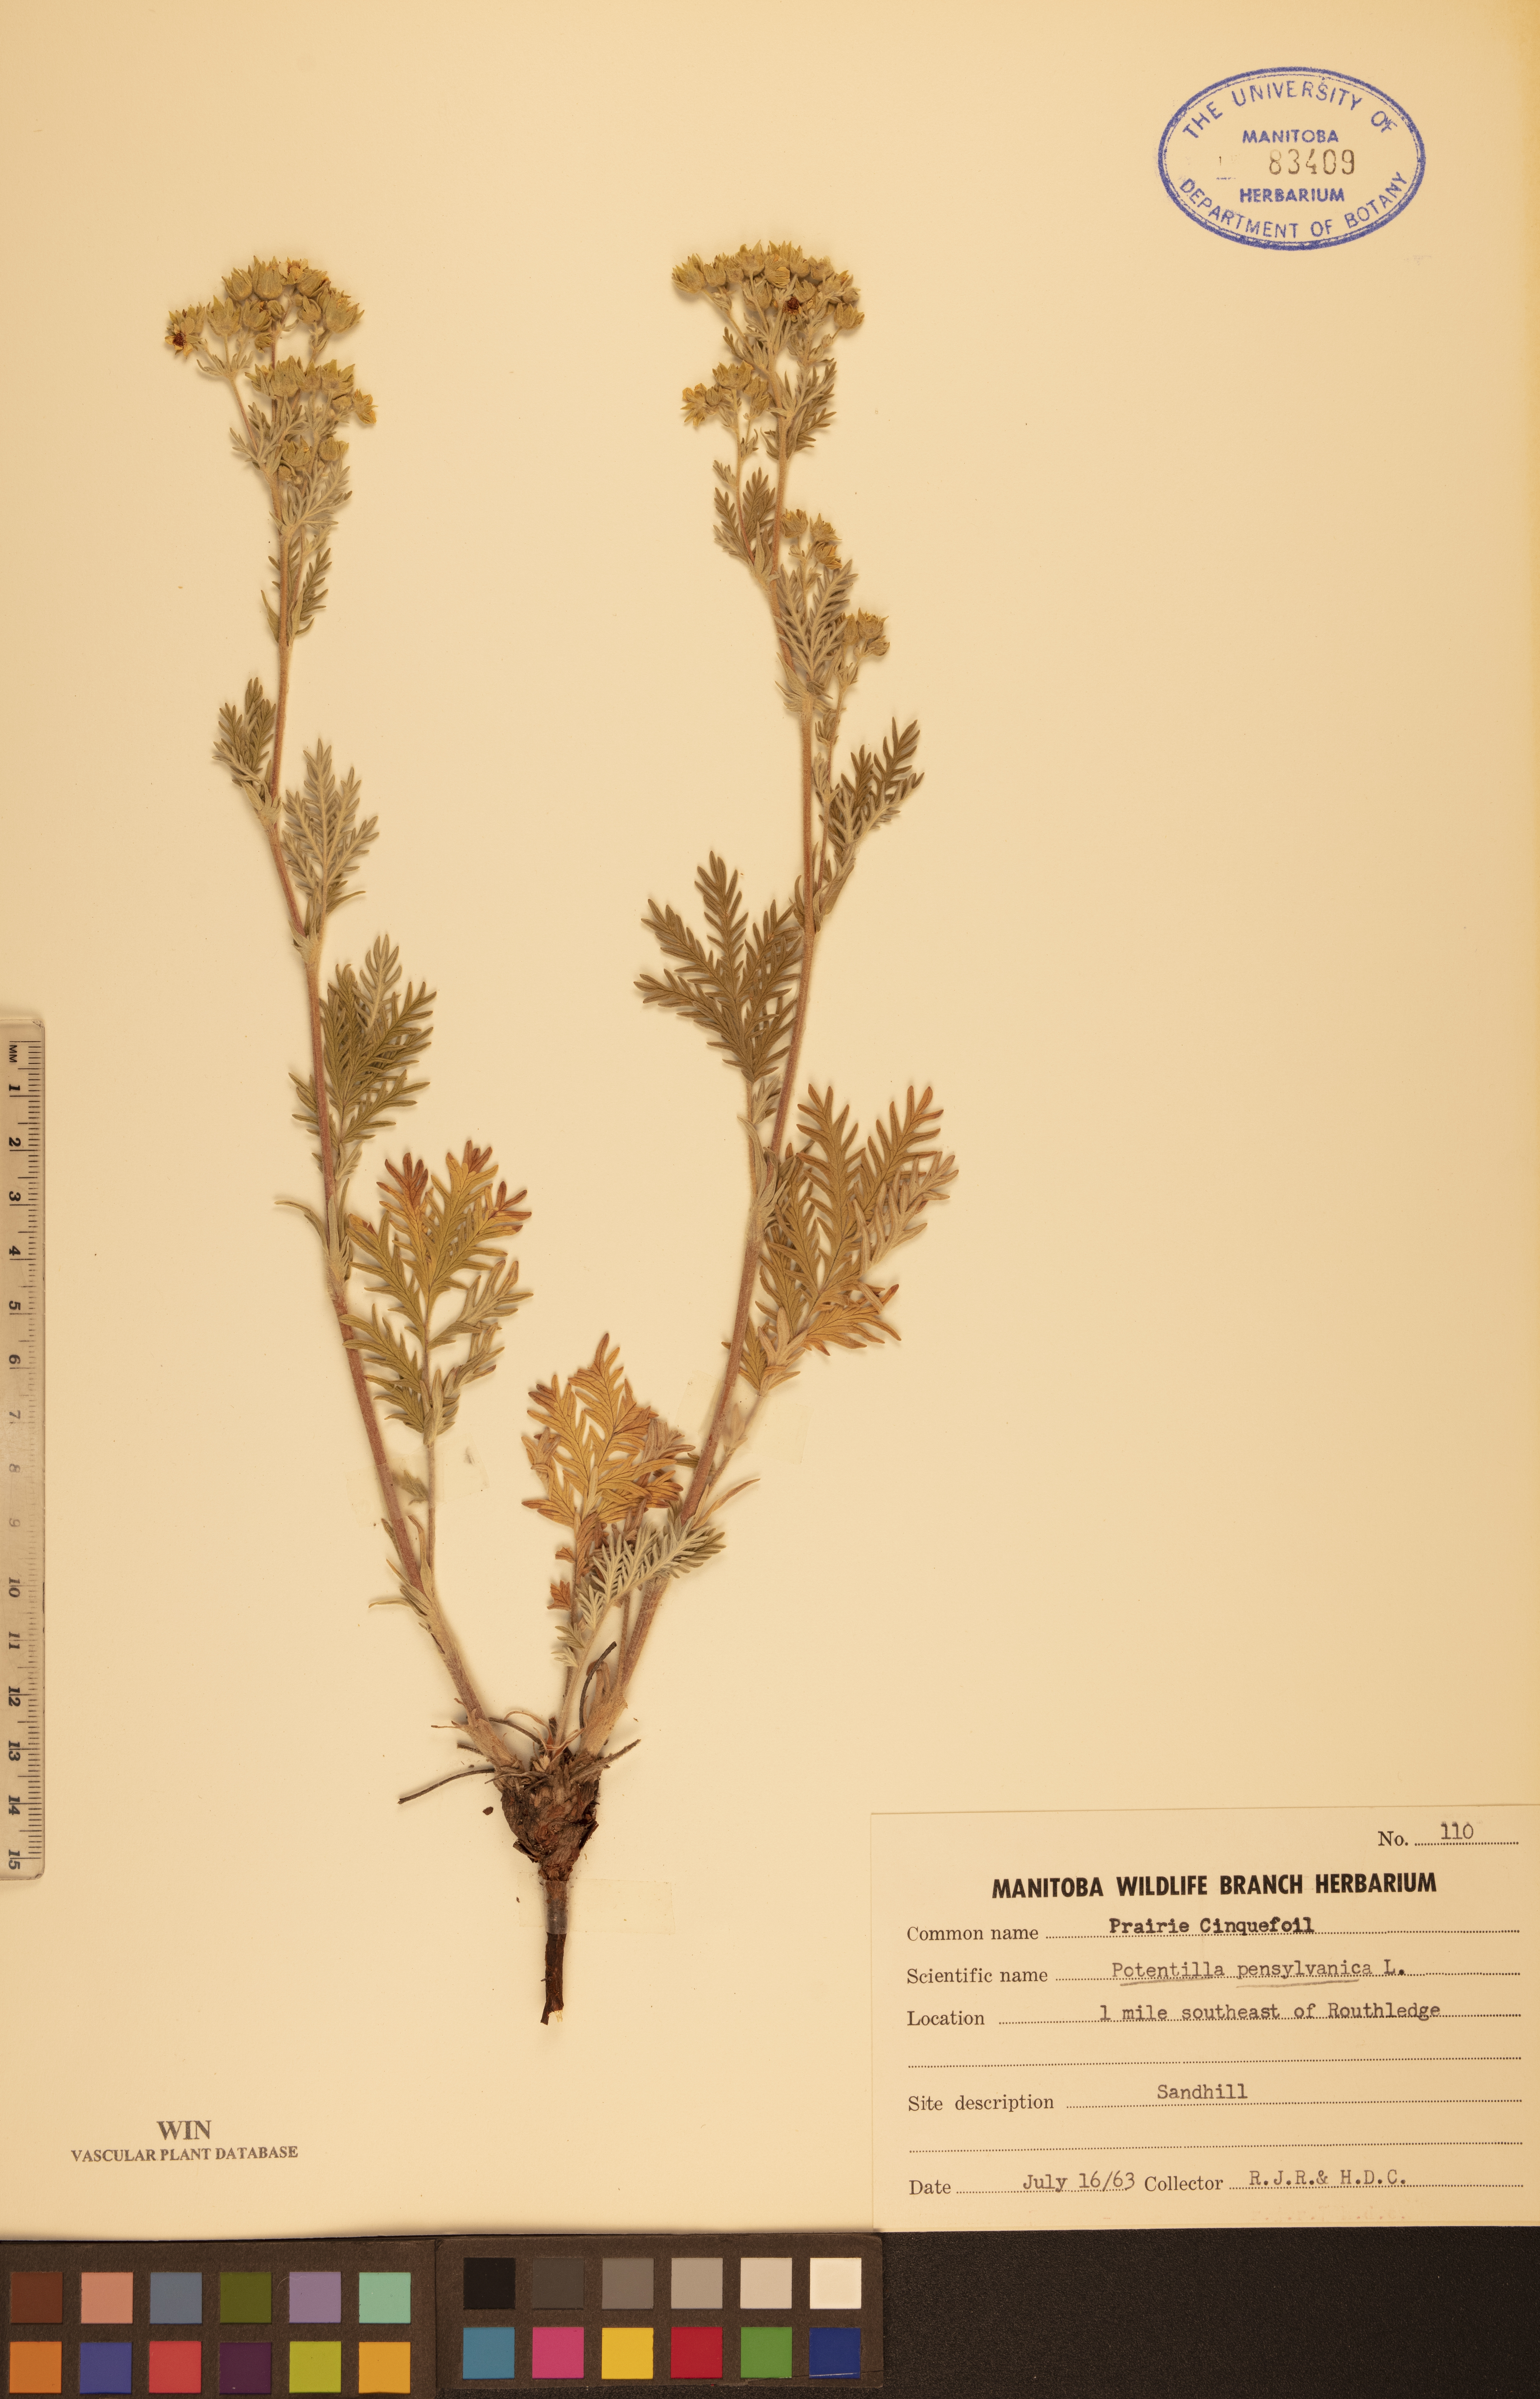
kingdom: Plantae
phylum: Tracheophyta
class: Magnoliopsida
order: Rosales
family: Rosaceae
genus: Potentilla
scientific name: Potentilla pensylvanica
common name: Pennsylvania cinquefoil
